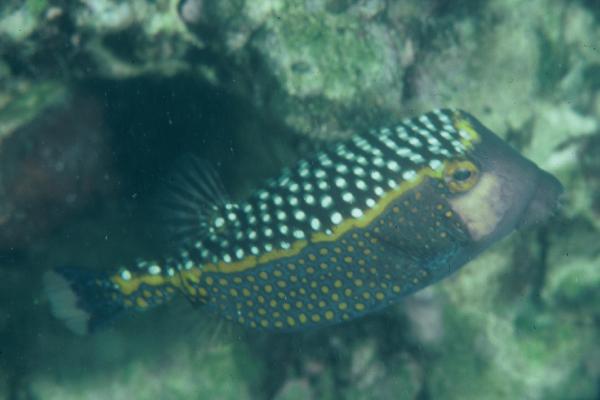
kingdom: Animalia
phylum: Chordata
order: Tetraodontiformes
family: Ostraciidae
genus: Ostracion
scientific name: Ostracion meleagris
